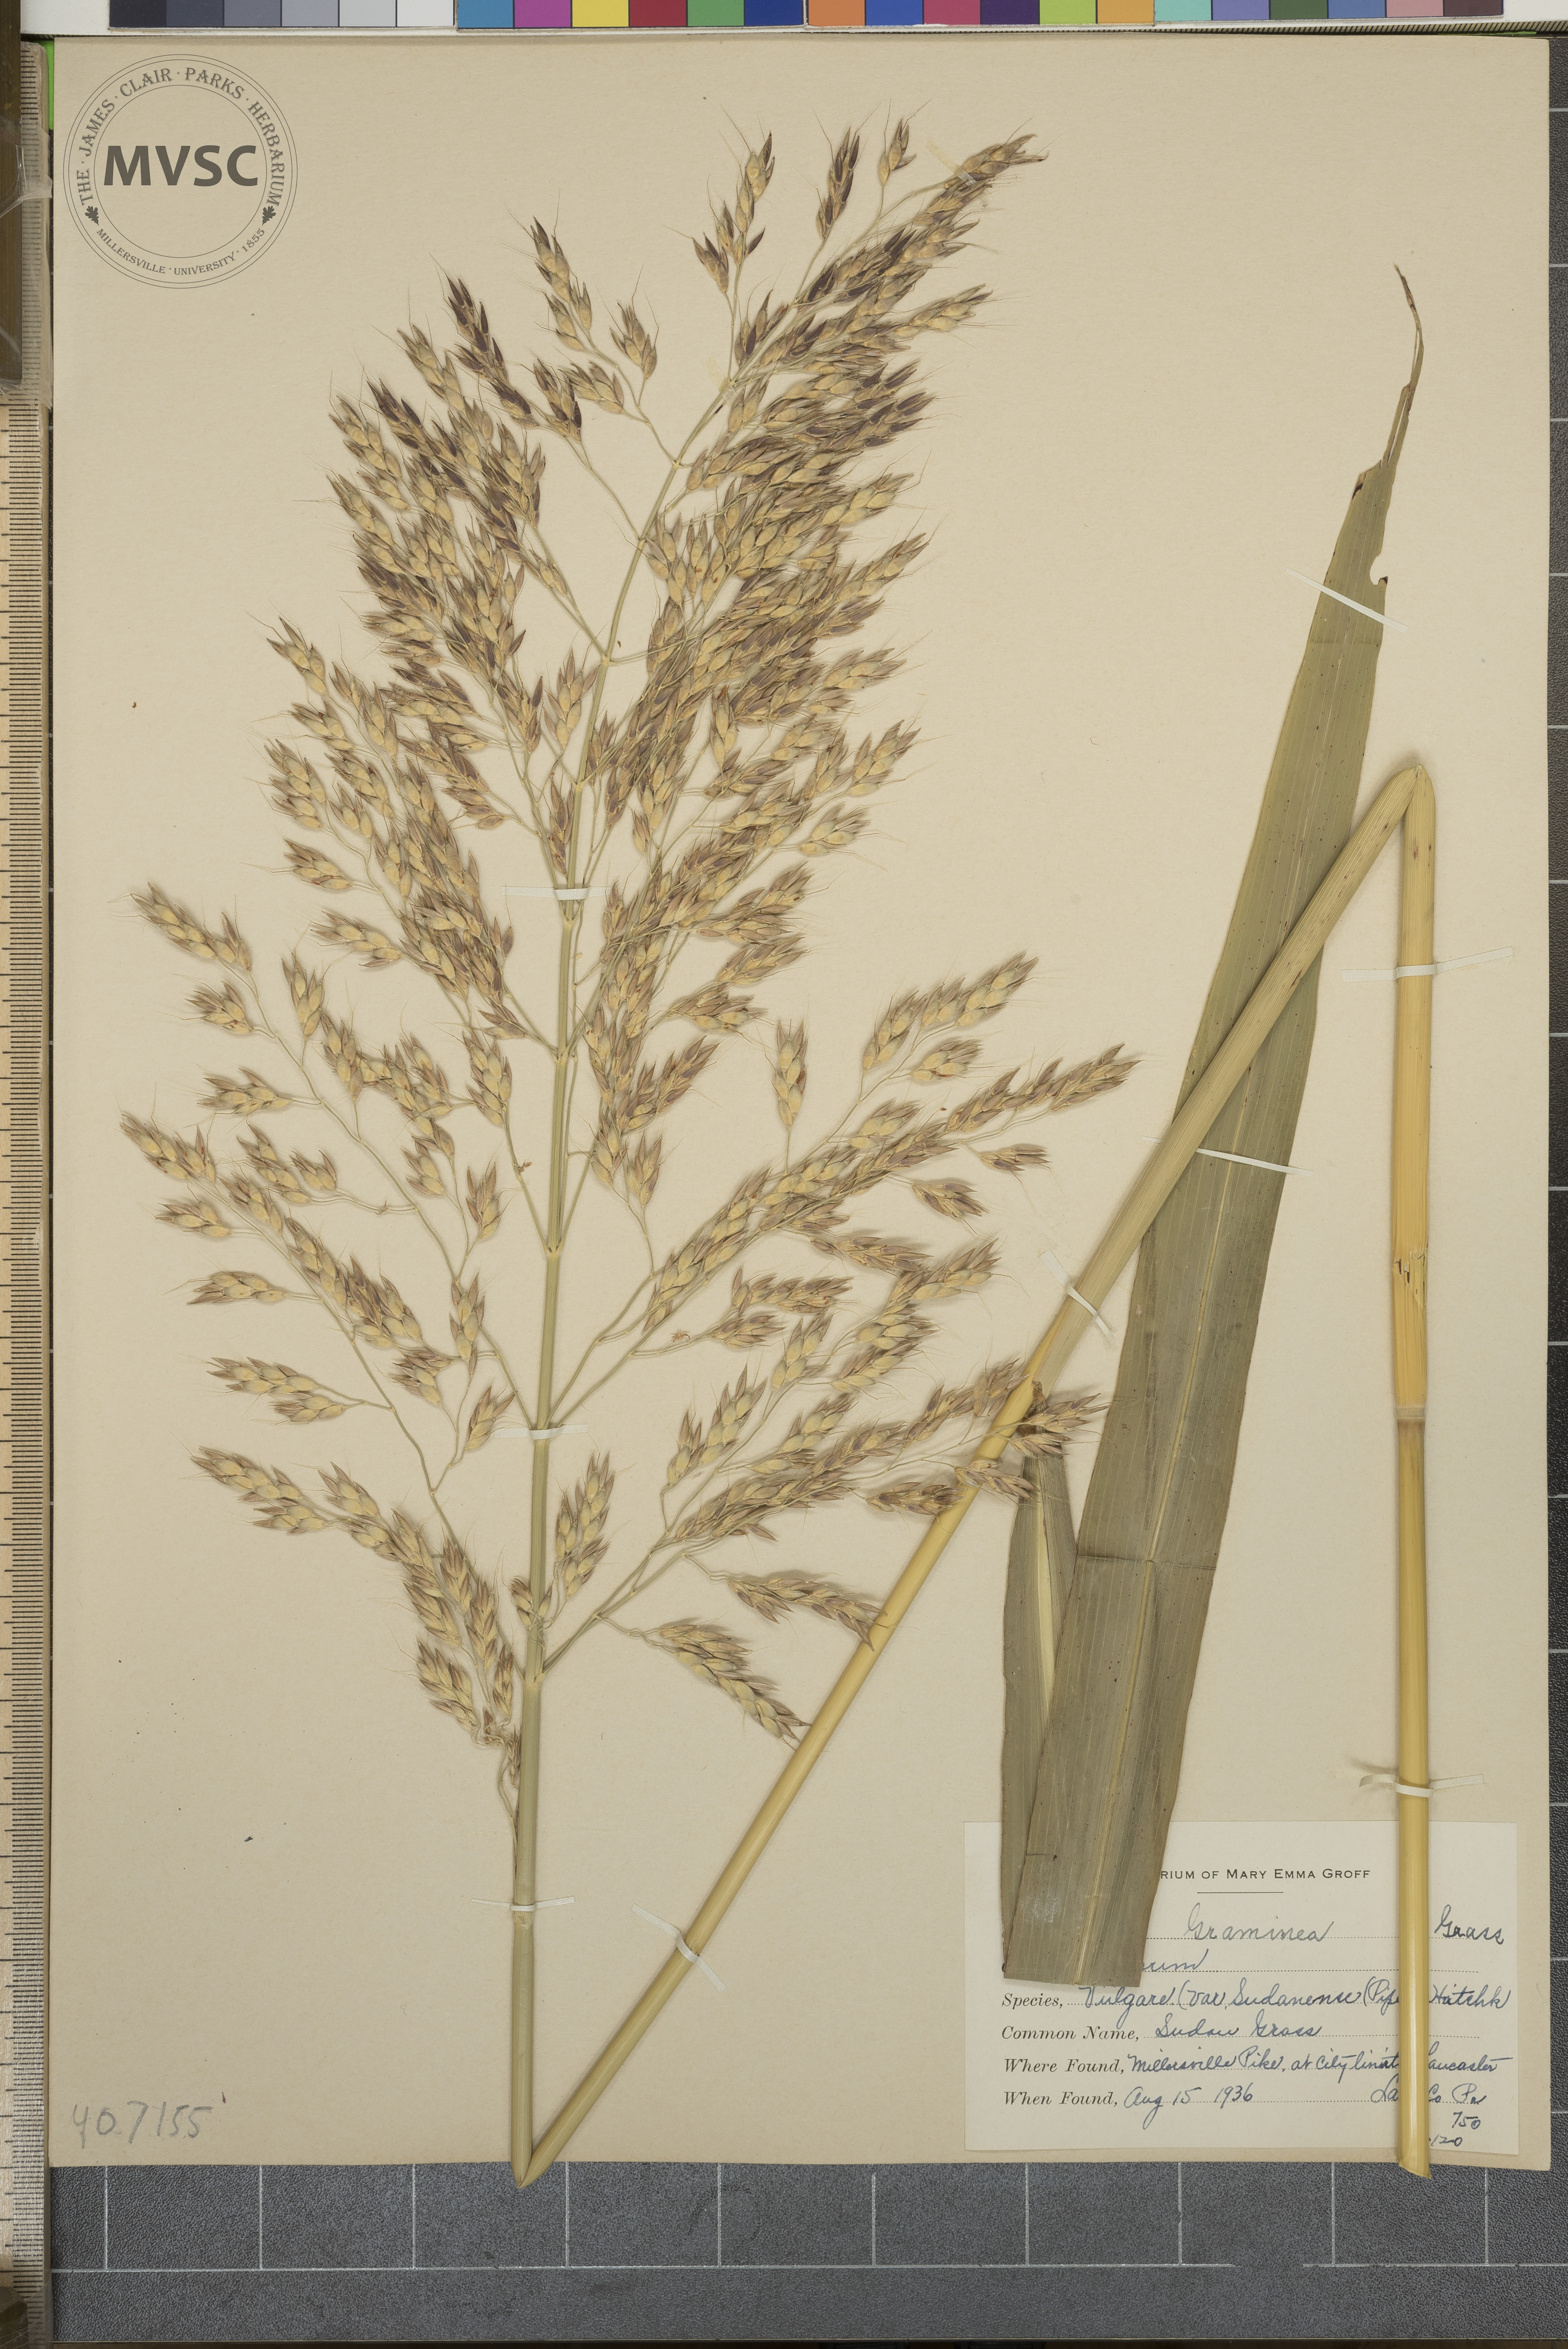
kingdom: Plantae
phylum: Tracheophyta
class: Liliopsida
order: Poales
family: Poaceae
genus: Sorghum
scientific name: Sorghum bicolor
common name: Sudan Grass
